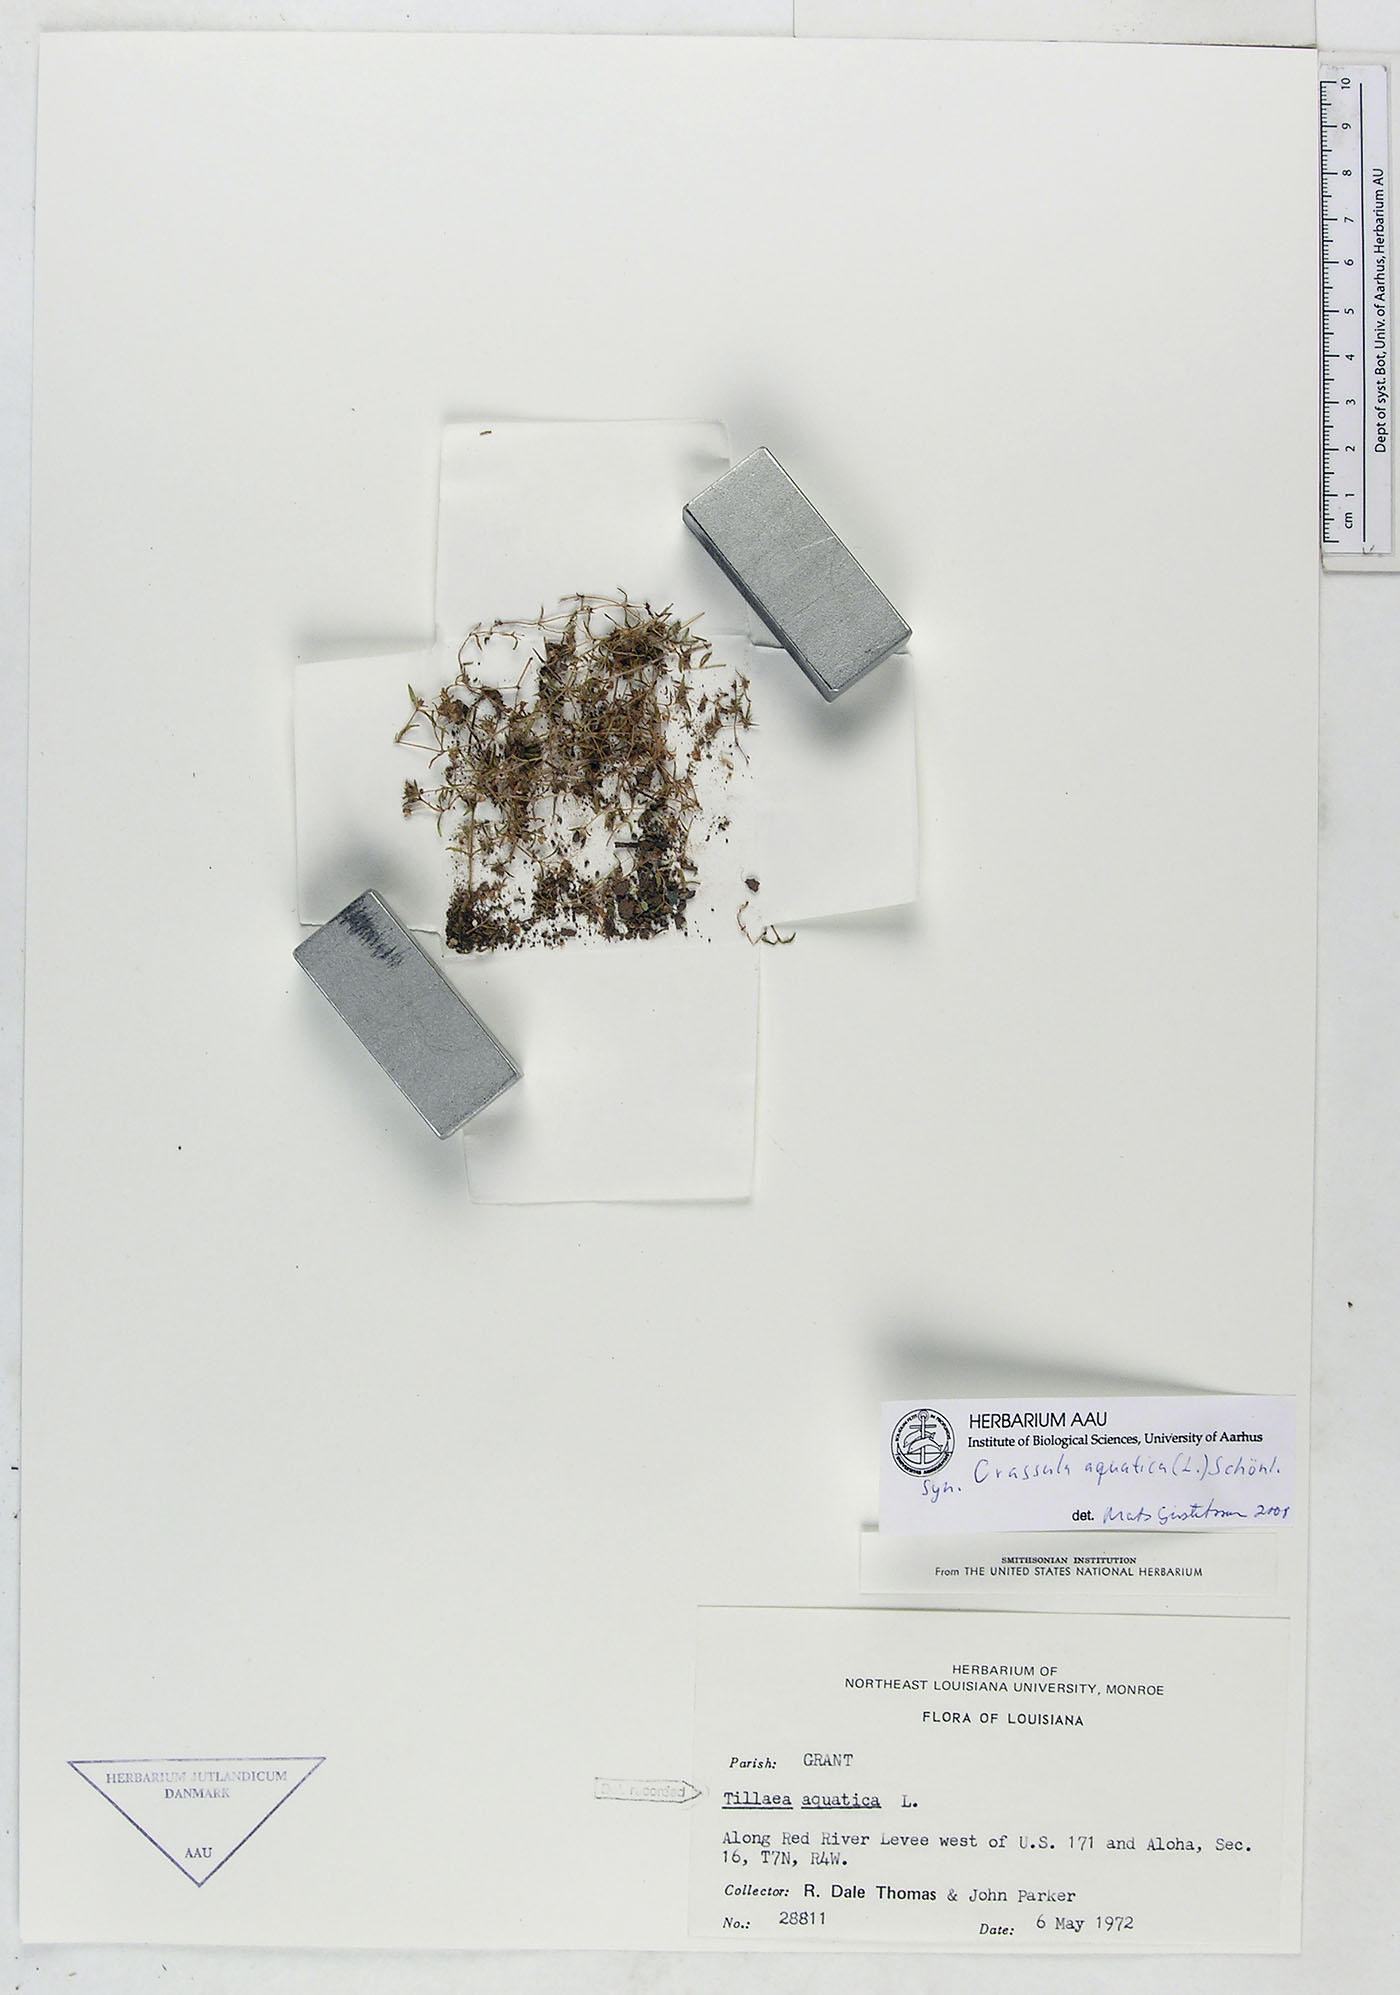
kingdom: Plantae
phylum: Tracheophyta
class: Magnoliopsida
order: Saxifragales
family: Crassulaceae
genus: Crassula
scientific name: Crassula aquatica
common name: Pigmyweed
